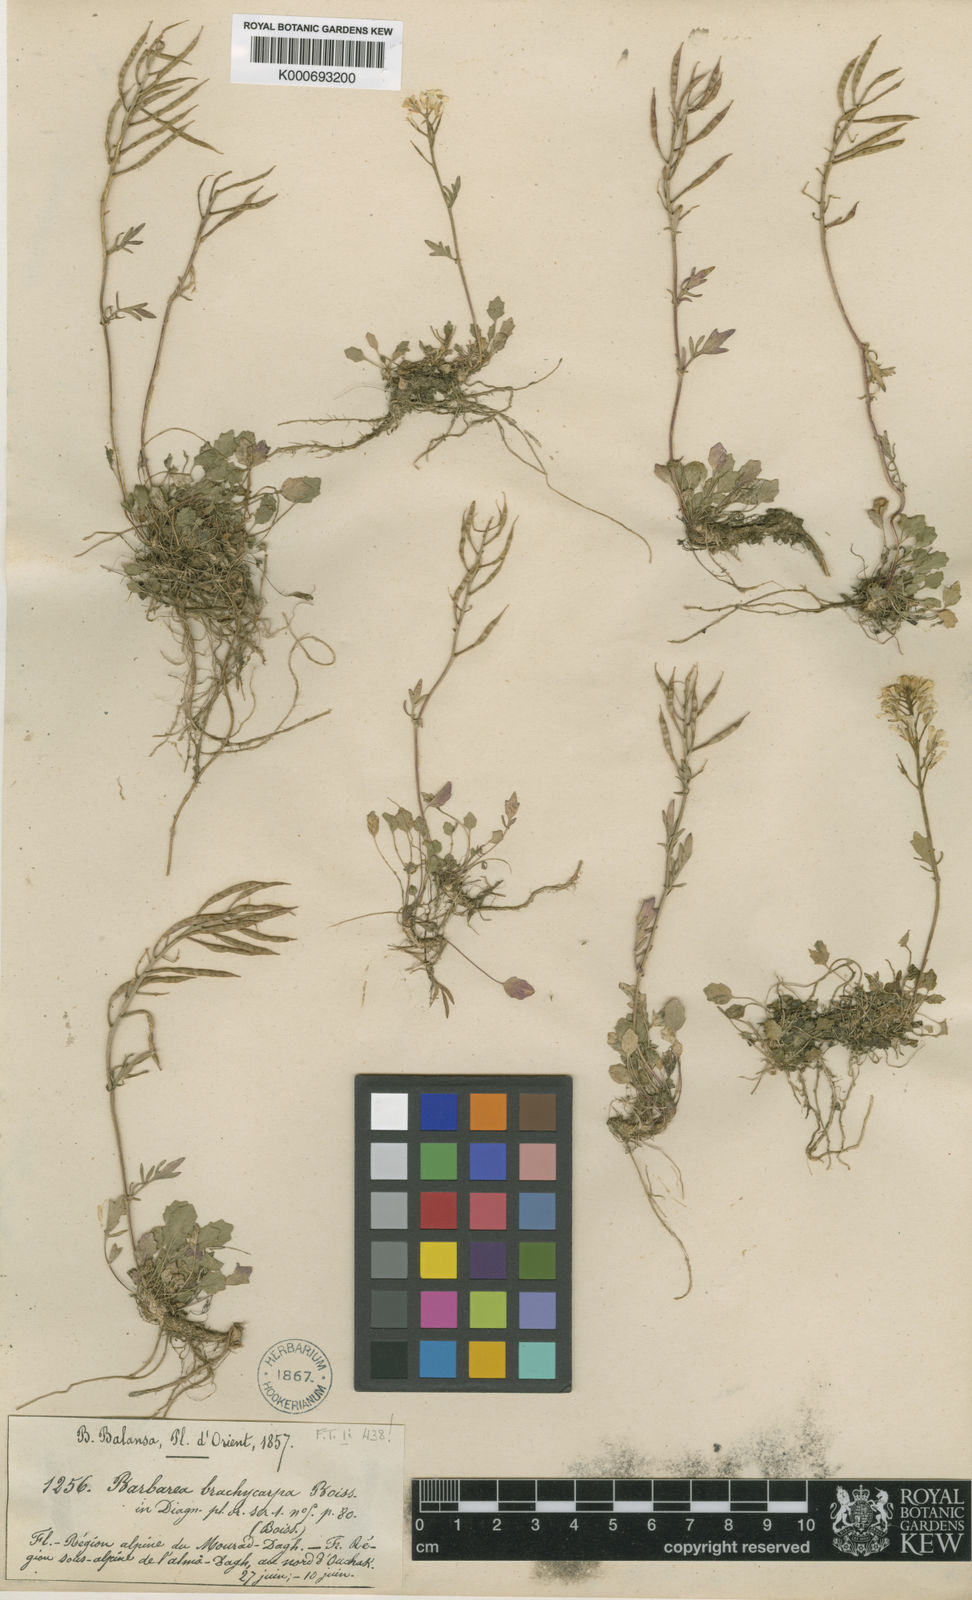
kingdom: Plantae
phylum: Tracheophyta
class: Magnoliopsida
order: Brassicales
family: Brassicaceae
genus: Barbarea
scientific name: Barbarea brachycarpa
